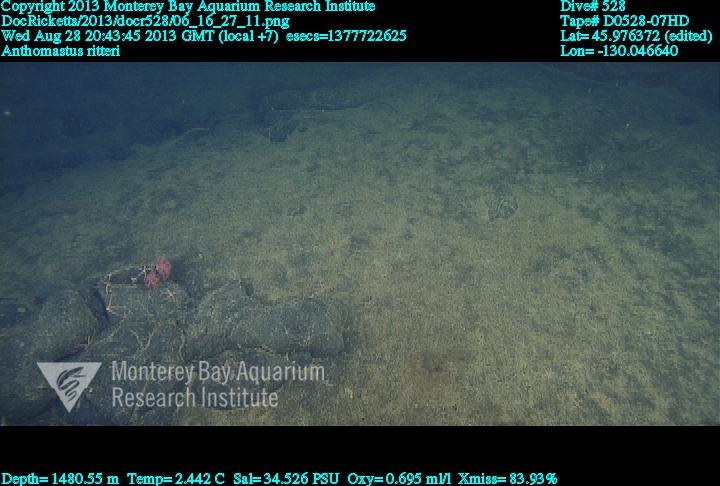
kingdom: Animalia
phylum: Cnidaria
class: Anthozoa
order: Scleralcyonacea
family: Coralliidae
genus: Heteropolypus
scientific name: Heteropolypus ritteri
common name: Ritter's soft coral
